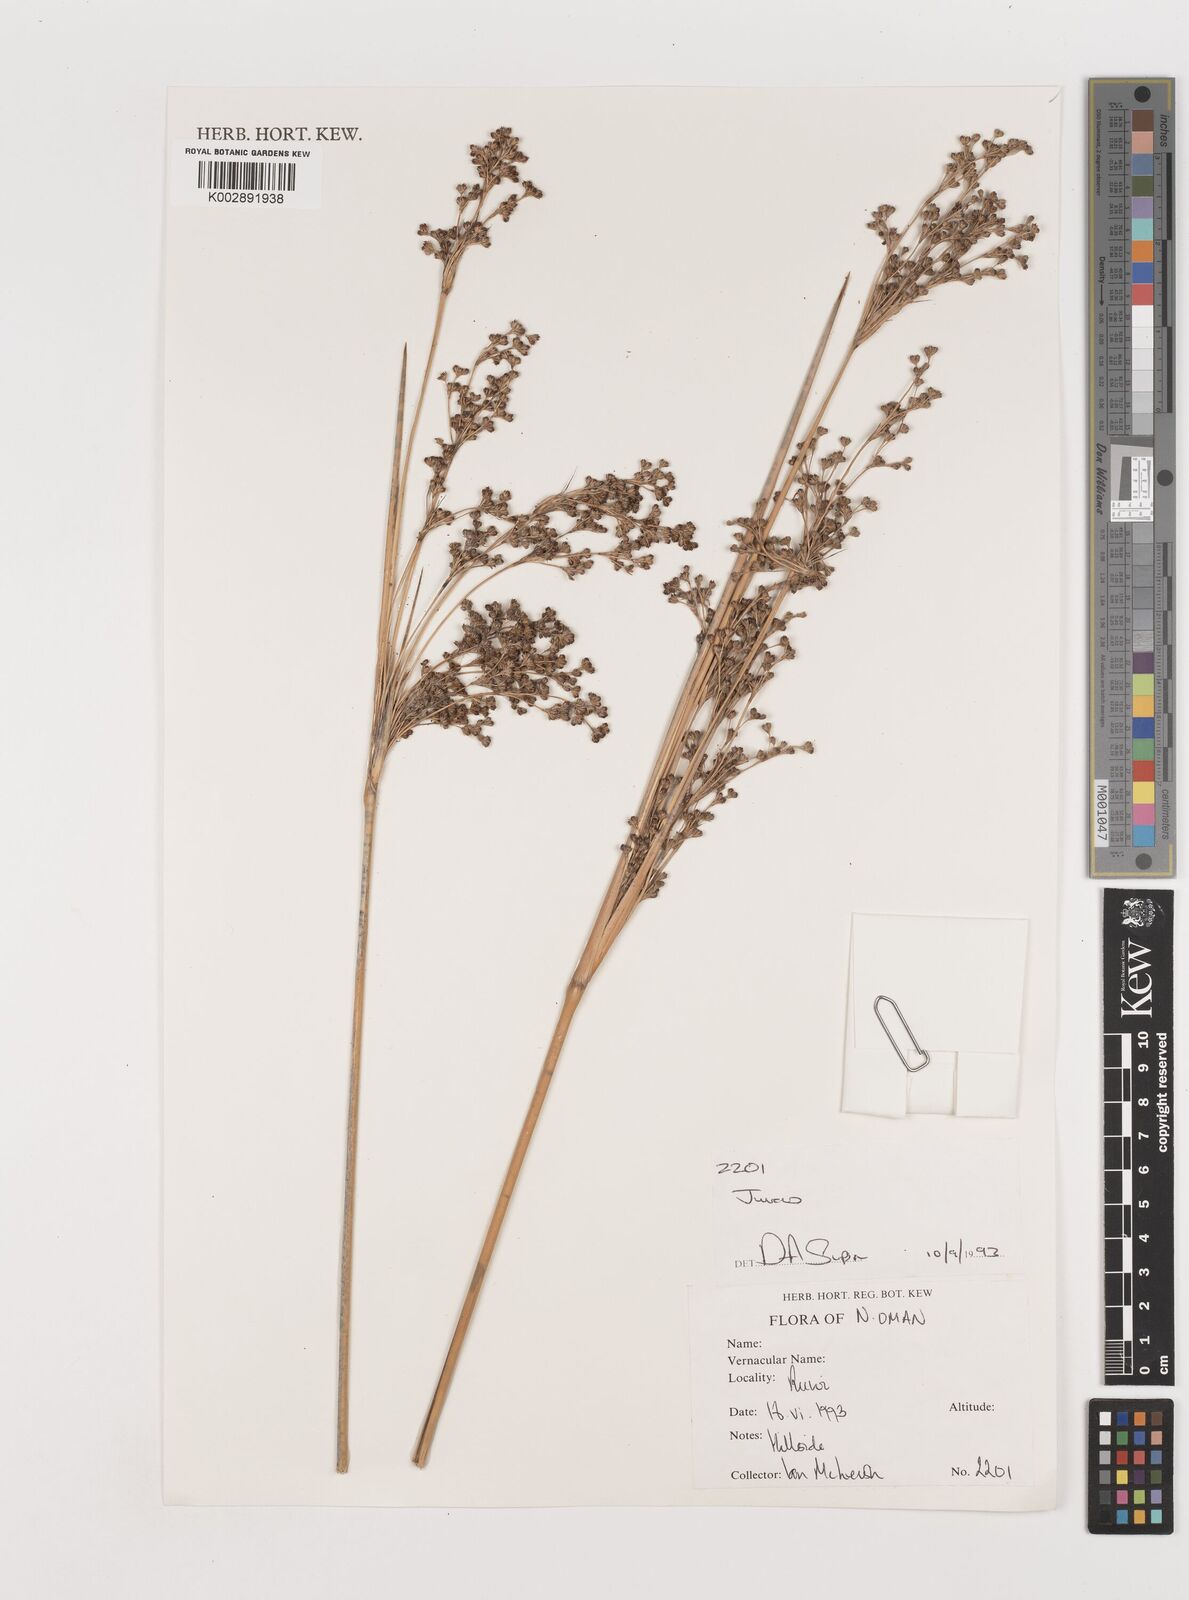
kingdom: Plantae
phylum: Tracheophyta
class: Liliopsida
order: Poales
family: Juncaceae
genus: Juncus
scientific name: Juncus
